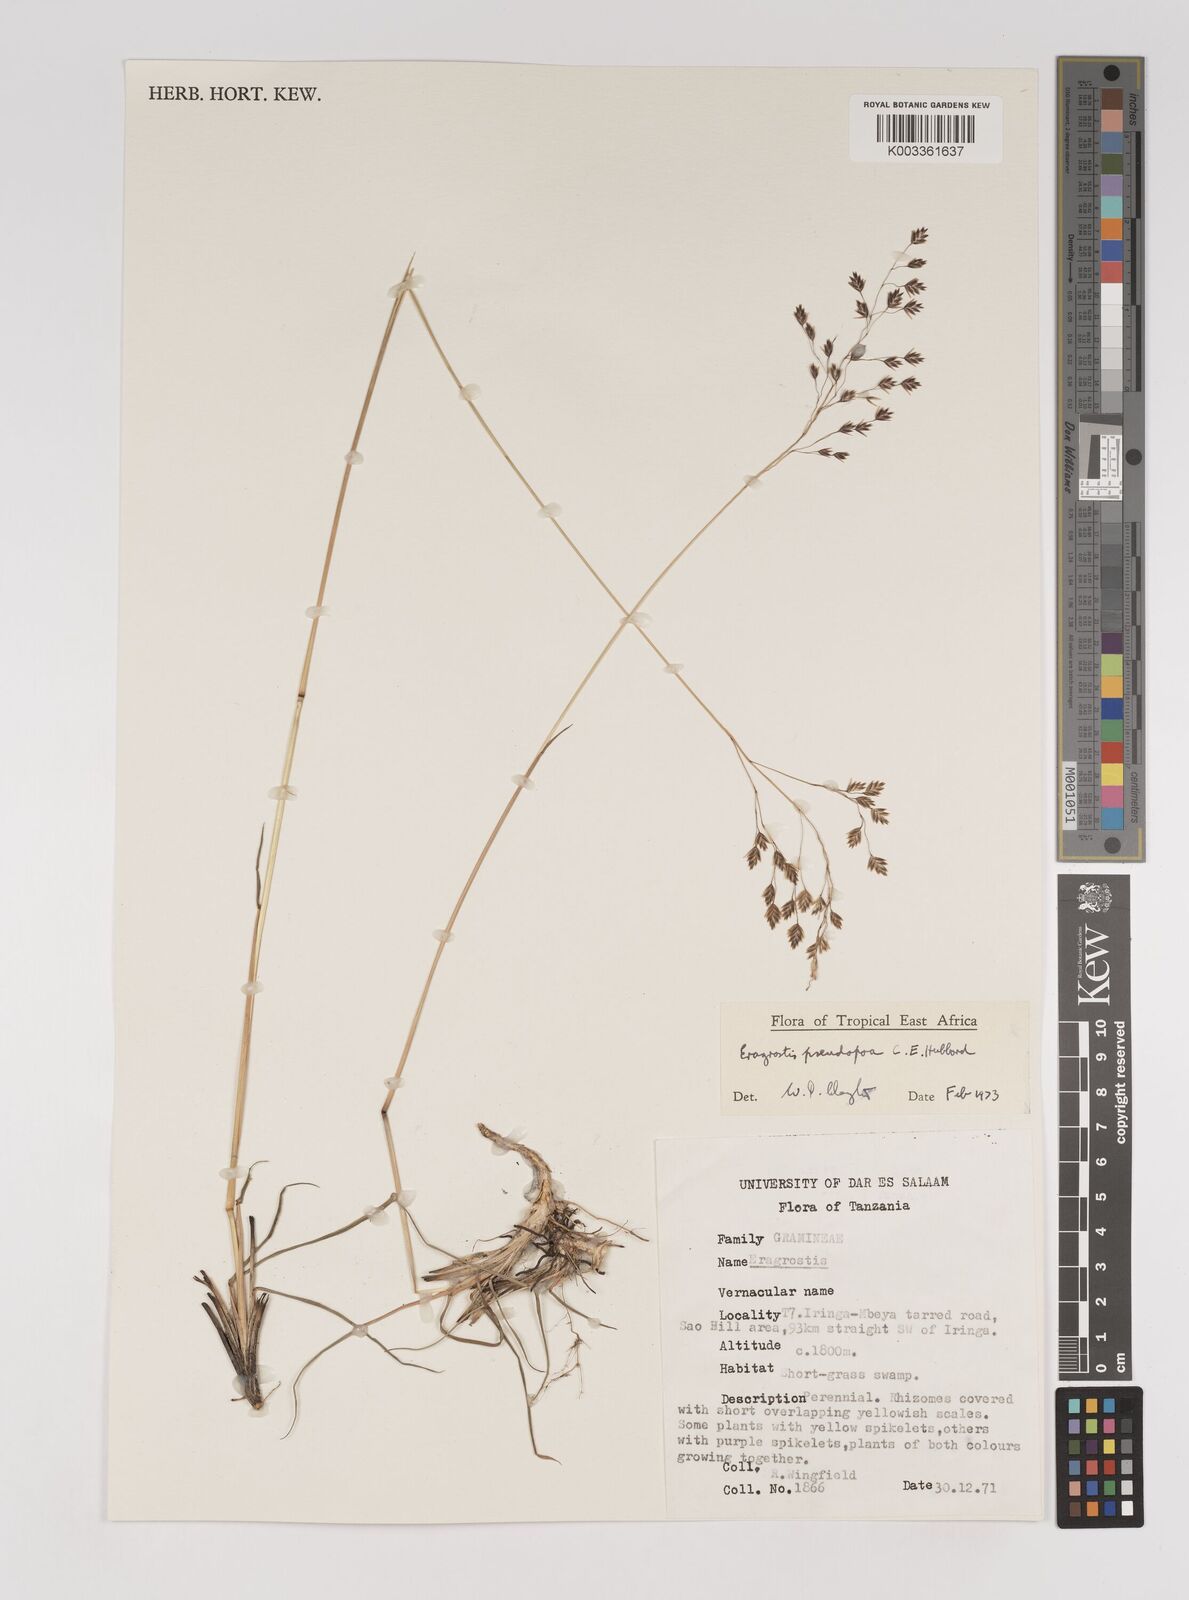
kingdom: Plantae
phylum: Tracheophyta
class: Liliopsida
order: Poales
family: Poaceae
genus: Eragrostis
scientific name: Eragrostis pseudopoa
